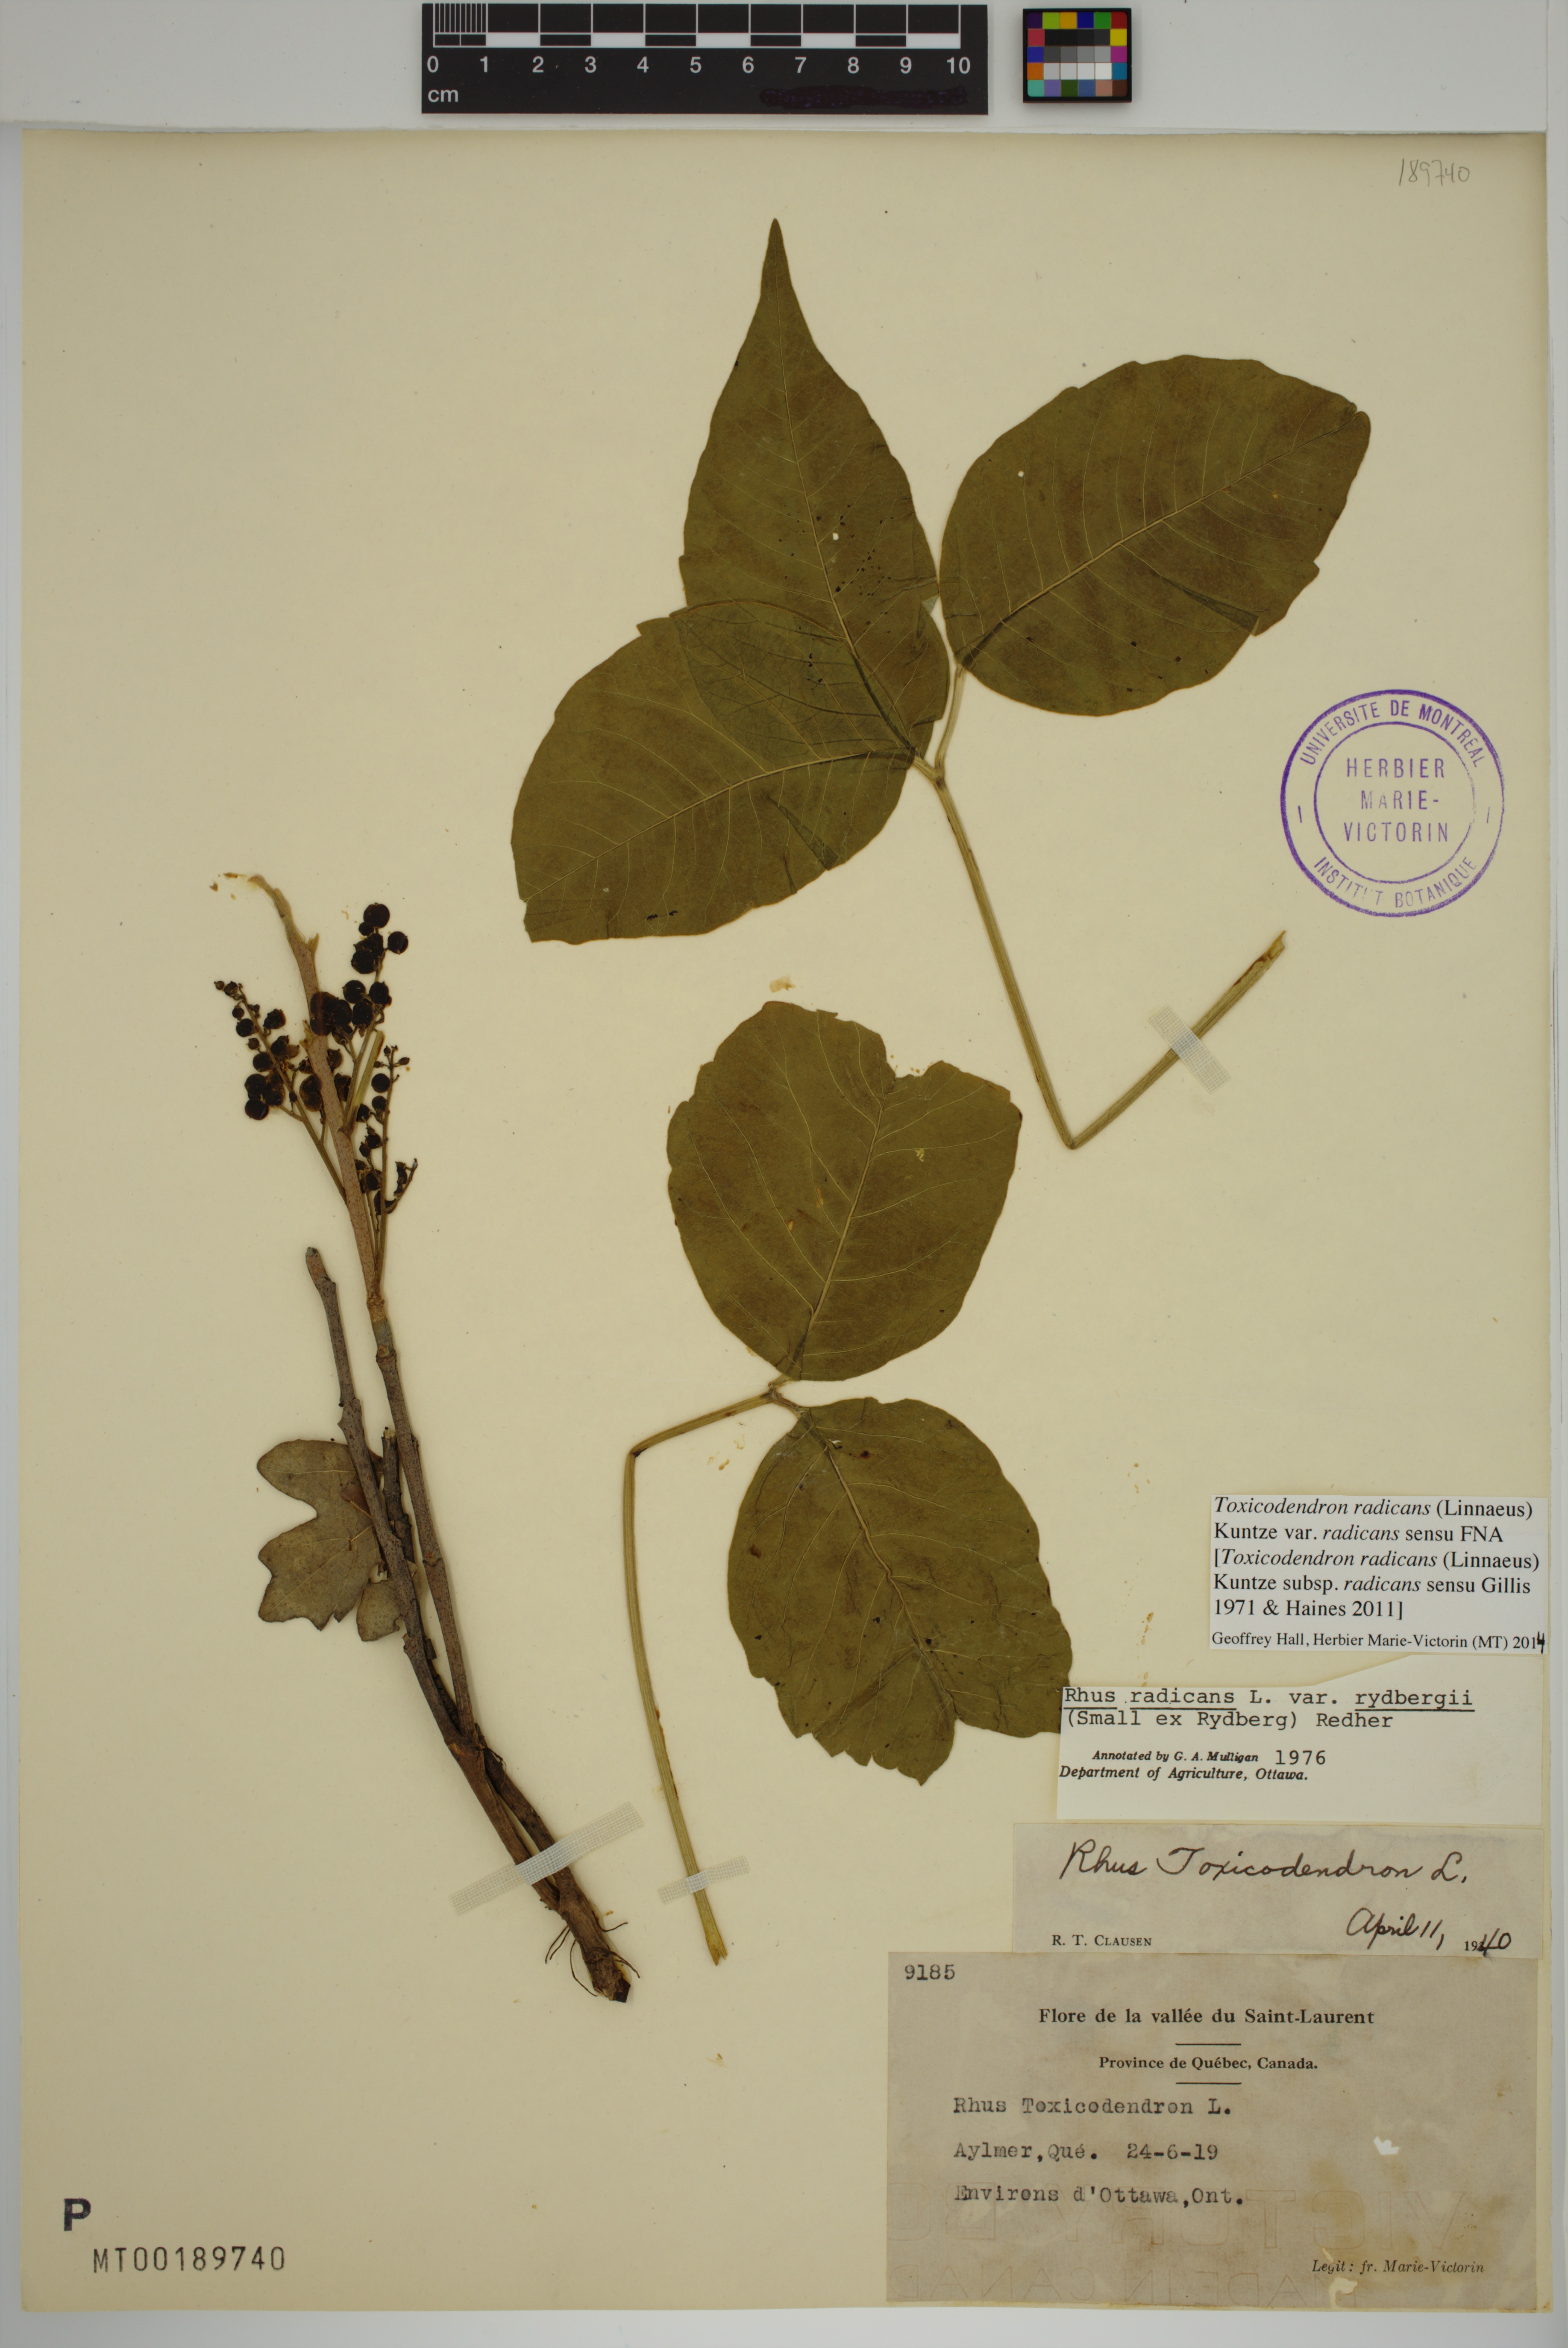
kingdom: Plantae
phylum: Tracheophyta
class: Magnoliopsida
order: Sapindales
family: Anacardiaceae
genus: Toxicodendron
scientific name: Toxicodendron radicans
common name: Poison ivy
